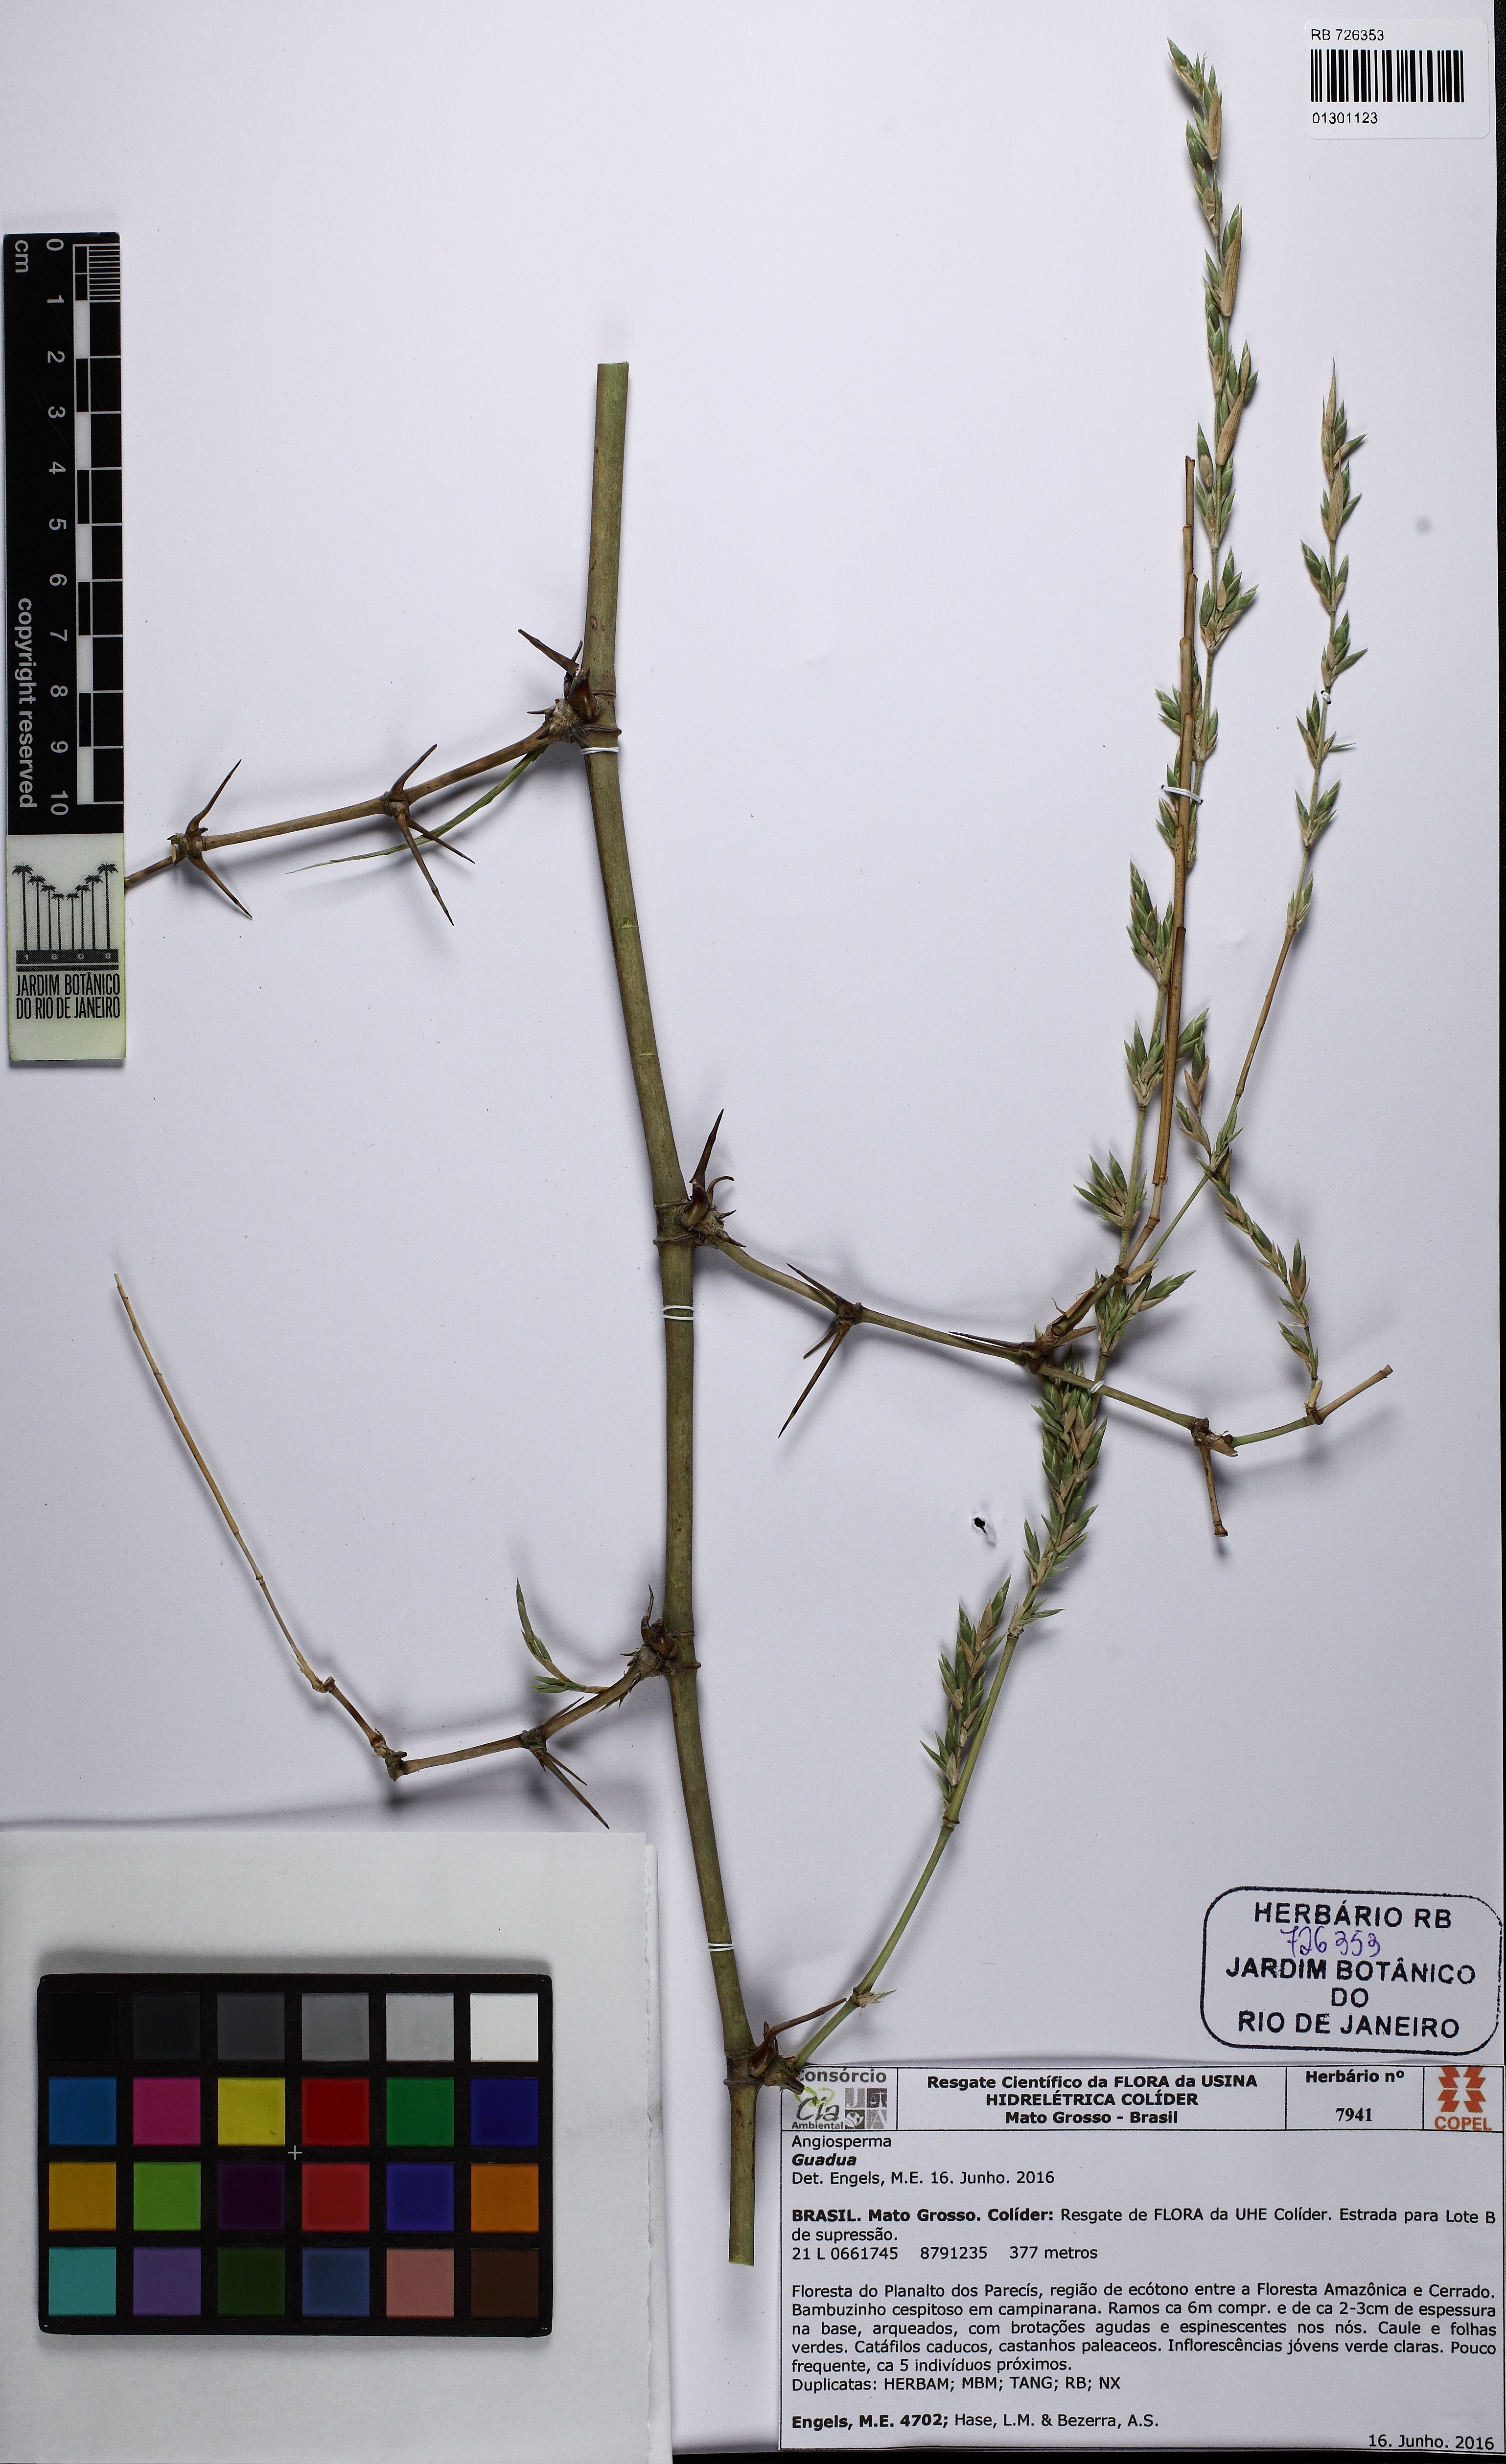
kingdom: Plantae
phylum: Tracheophyta
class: Liliopsida
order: Poales
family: Poaceae
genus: Guadua
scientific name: Guadua paniculata
